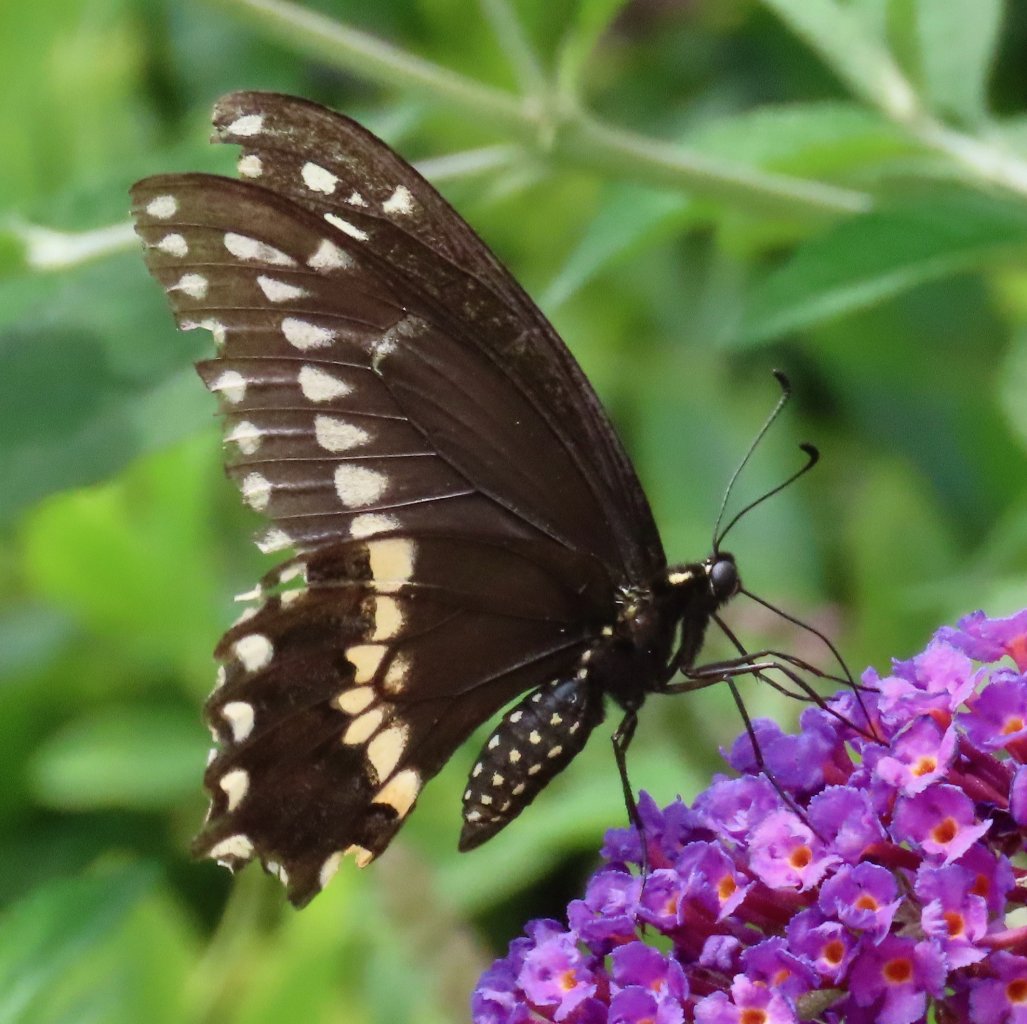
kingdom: Animalia
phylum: Arthropoda
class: Insecta
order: Lepidoptera
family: Papilionidae
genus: Papilio
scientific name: Papilio polyxenes
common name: Black Swallowtail
